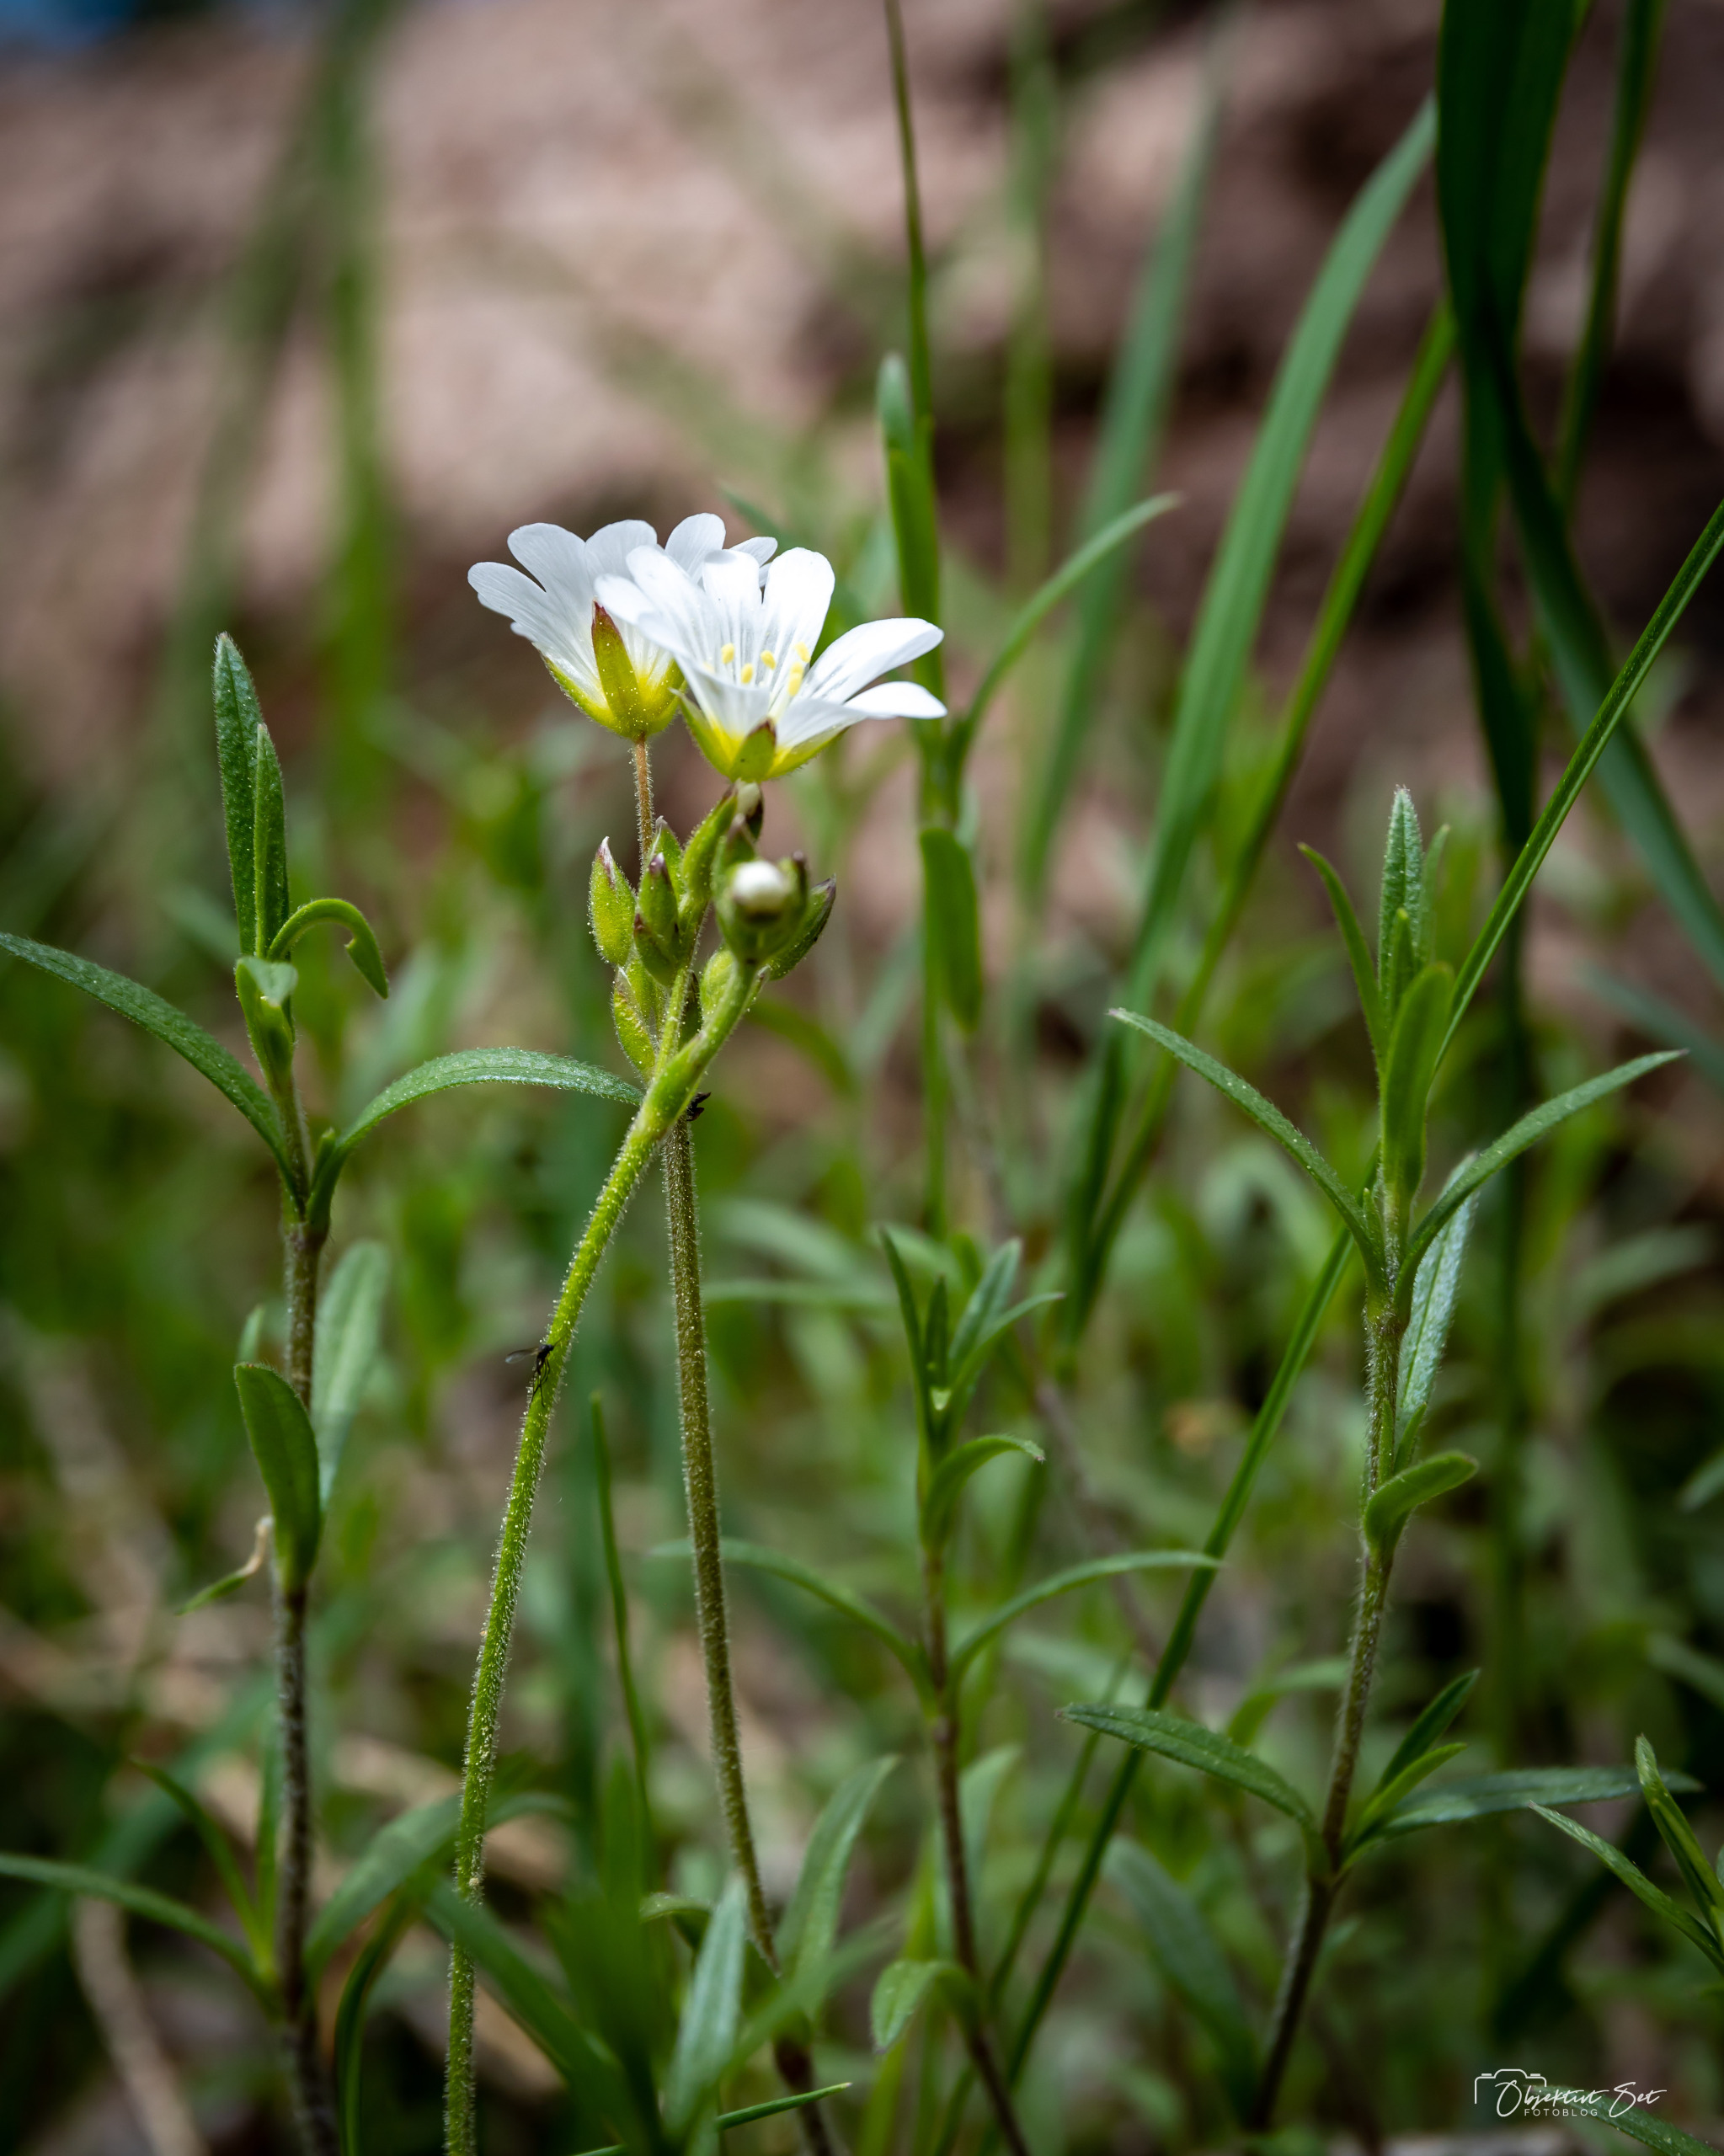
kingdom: Plantae
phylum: Tracheophyta
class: Magnoliopsida
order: Caryophyllales
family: Caryophyllaceae
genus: Cerastium
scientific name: Cerastium arvense
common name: Storblomstret hønsetarm
